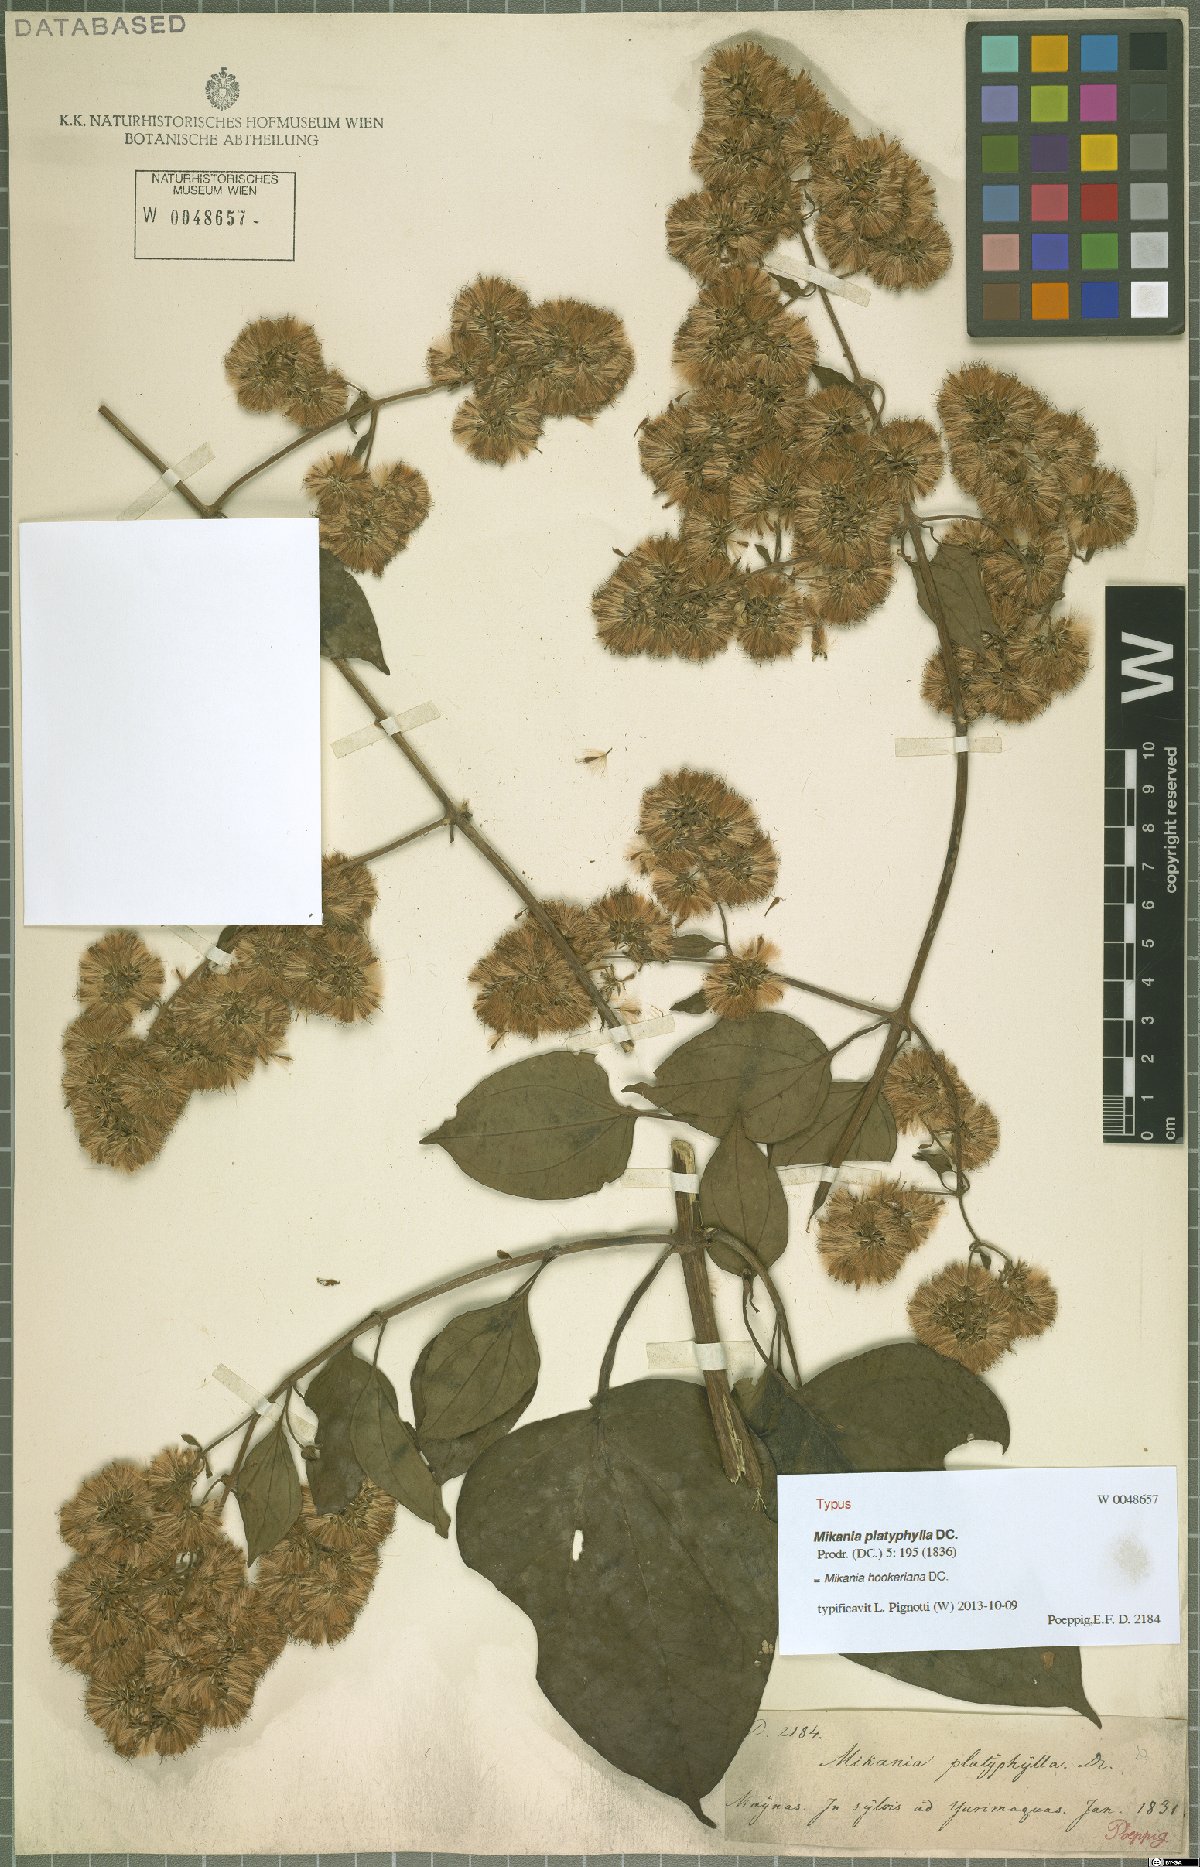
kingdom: Plantae
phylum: Tracheophyta
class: Magnoliopsida
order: Asterales
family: Asteraceae
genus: Mikania
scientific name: Mikania hookeriana
